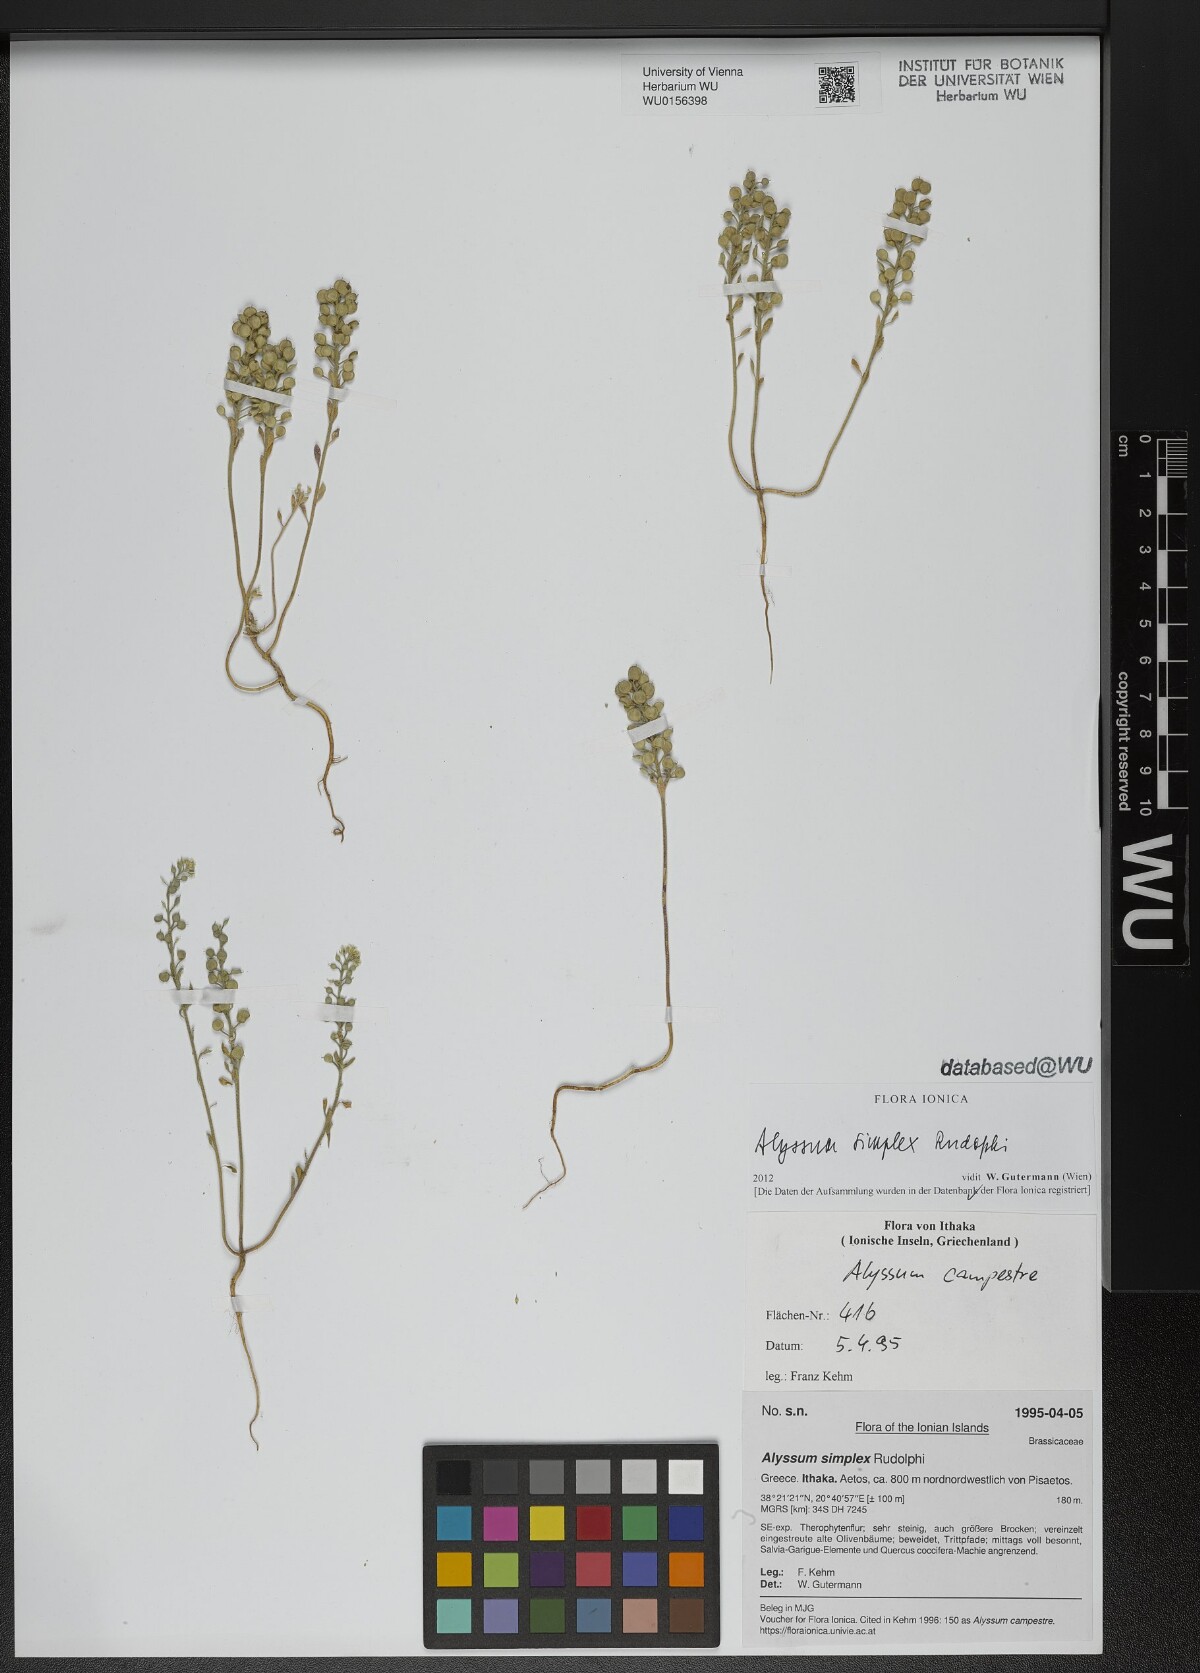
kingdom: Plantae
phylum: Tracheophyta
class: Magnoliopsida
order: Brassicales
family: Brassicaceae
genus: Alyssum
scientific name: Alyssum simplex
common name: Alyssum
